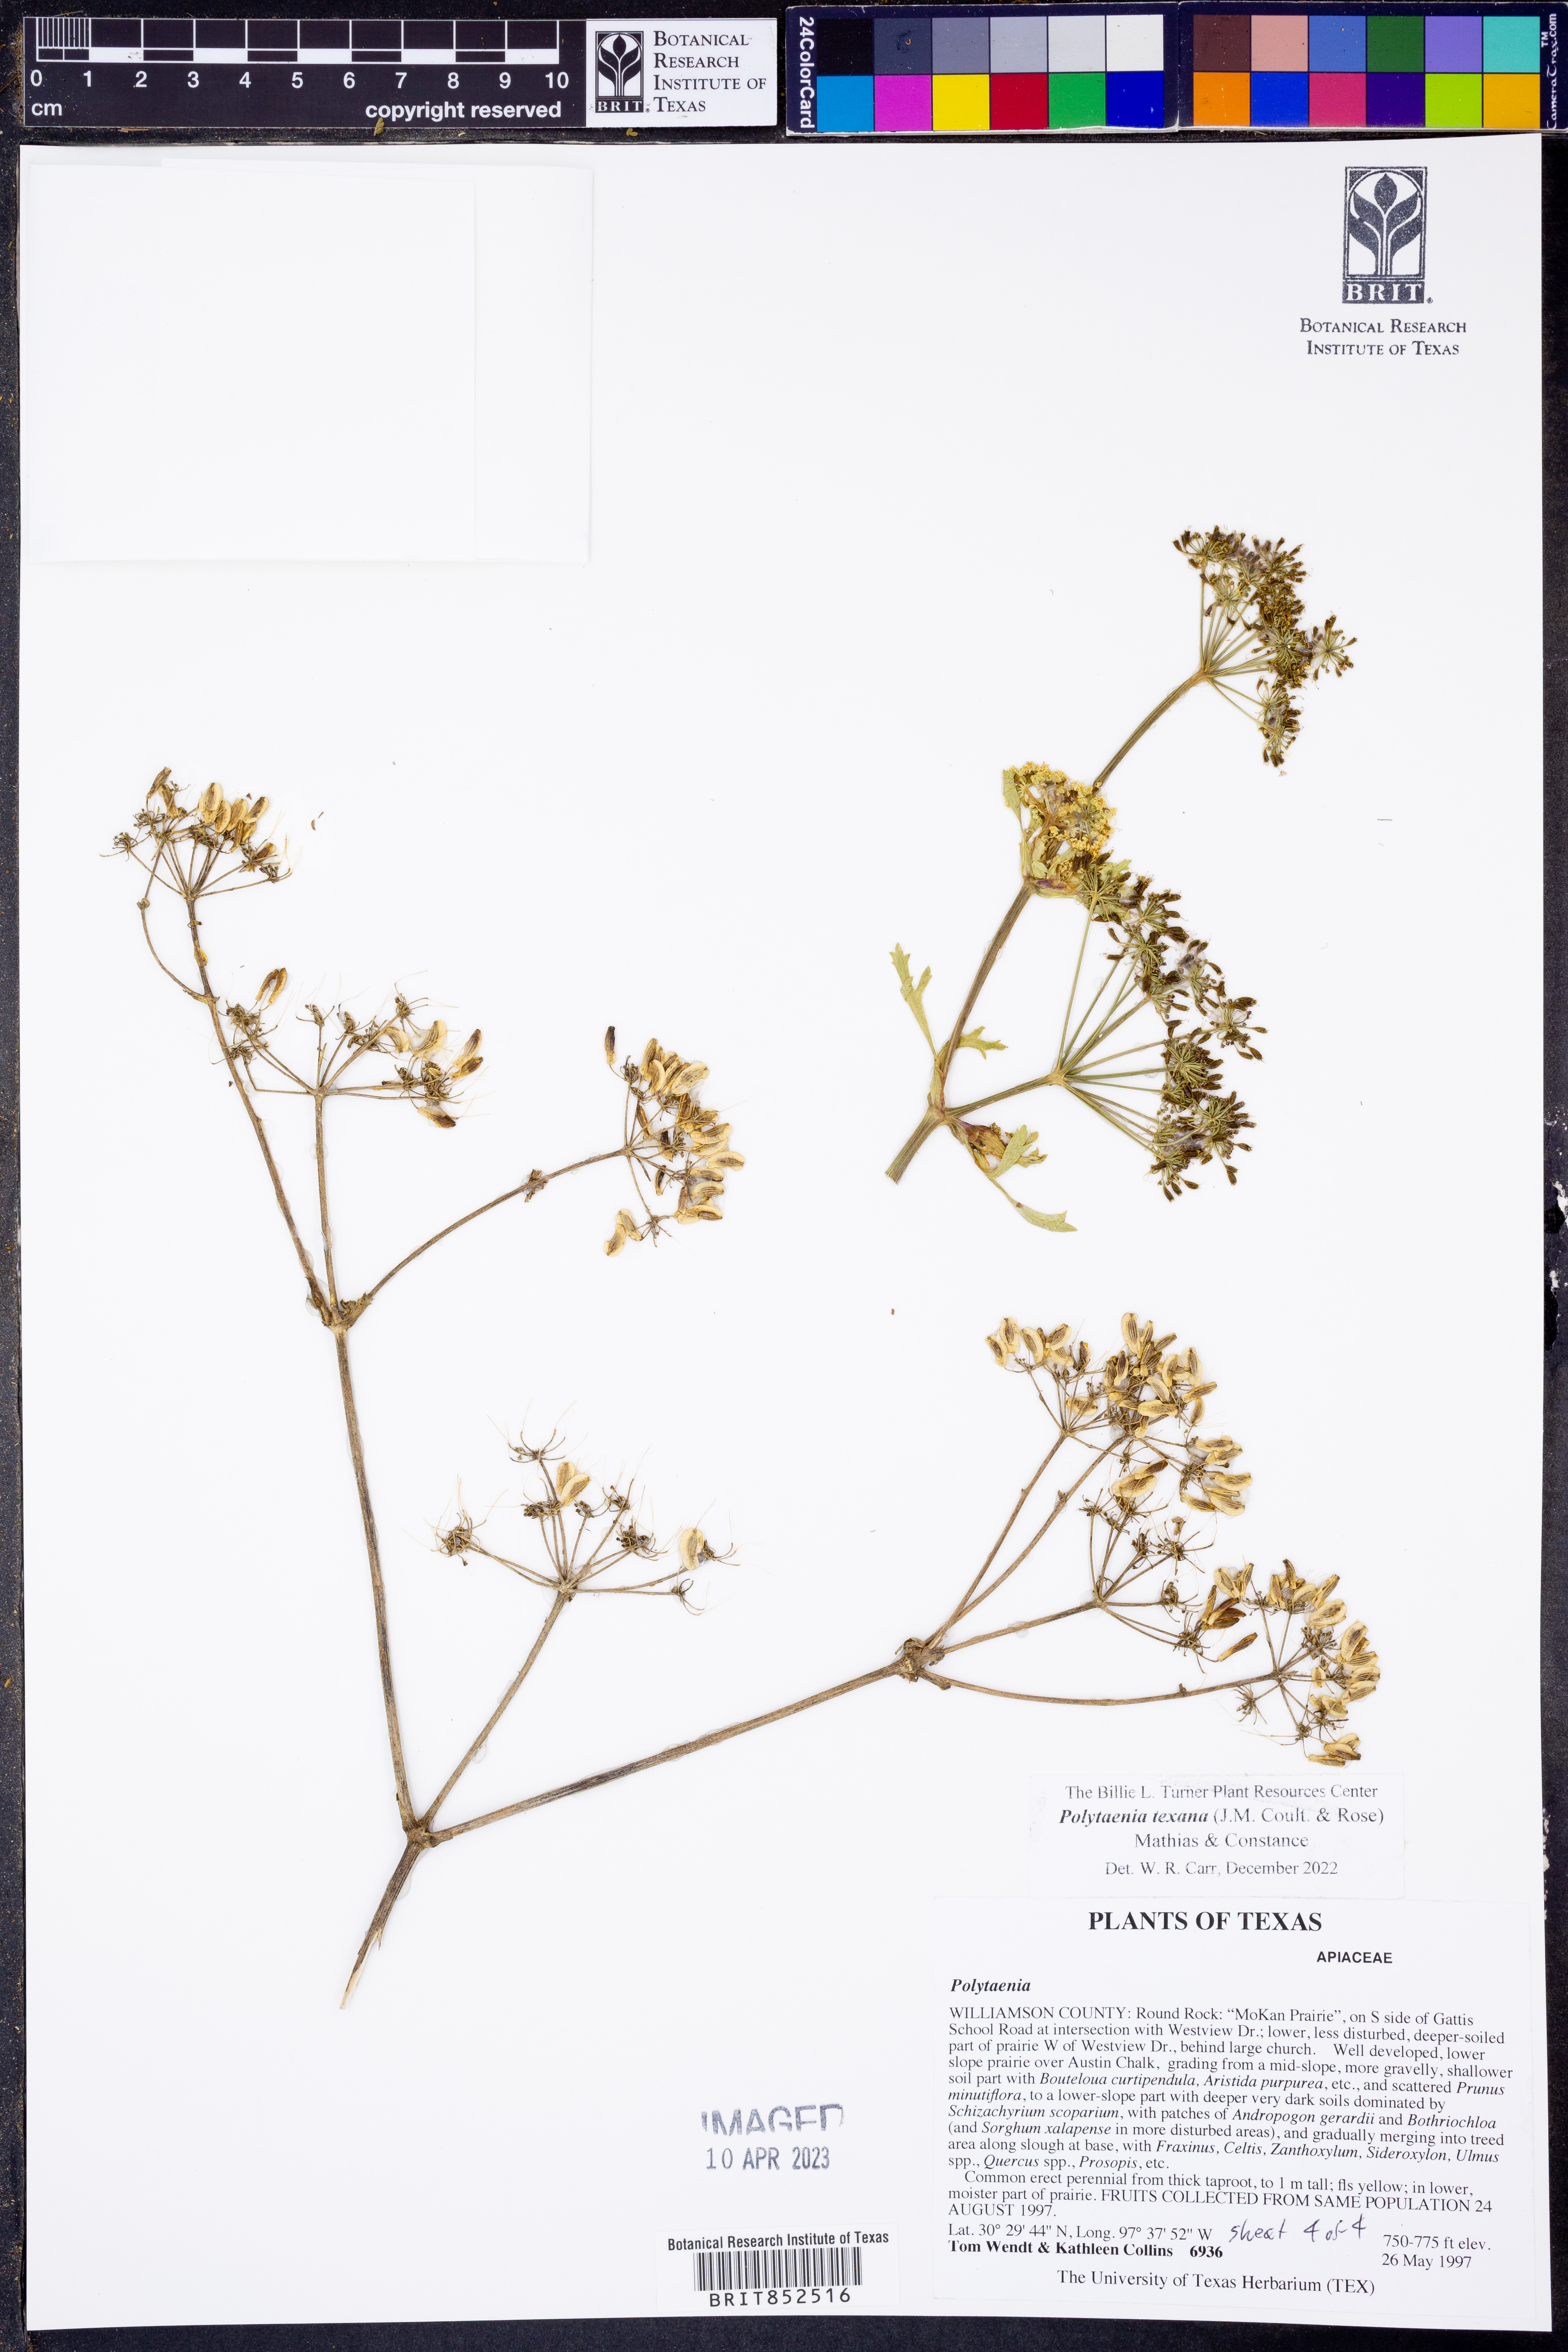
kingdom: Plantae
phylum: Tracheophyta
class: Magnoliopsida
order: Apiales
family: Apiaceae
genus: Polytaenia
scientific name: Polytaenia texana
